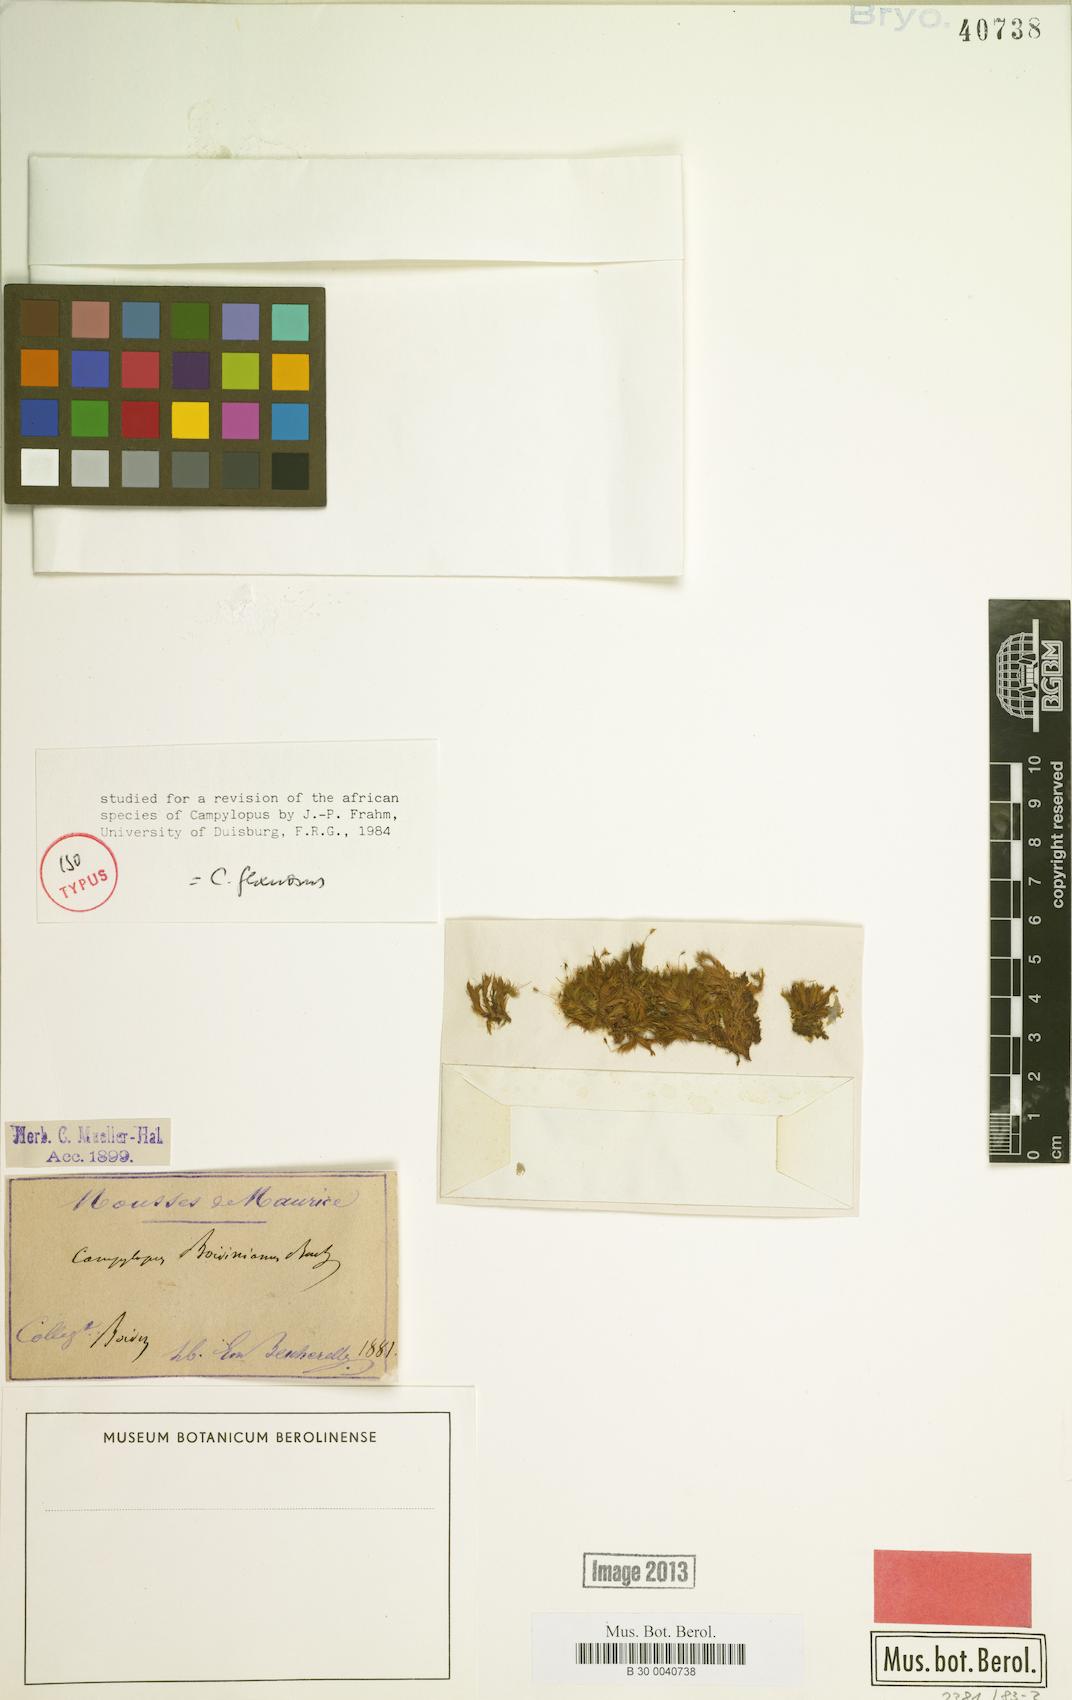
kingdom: Plantae
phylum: Bryophyta
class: Bryopsida
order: Dicranales
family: Leucobryaceae
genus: Campylopus
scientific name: Campylopus flexuosus
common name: Rusty swan-neck moss
